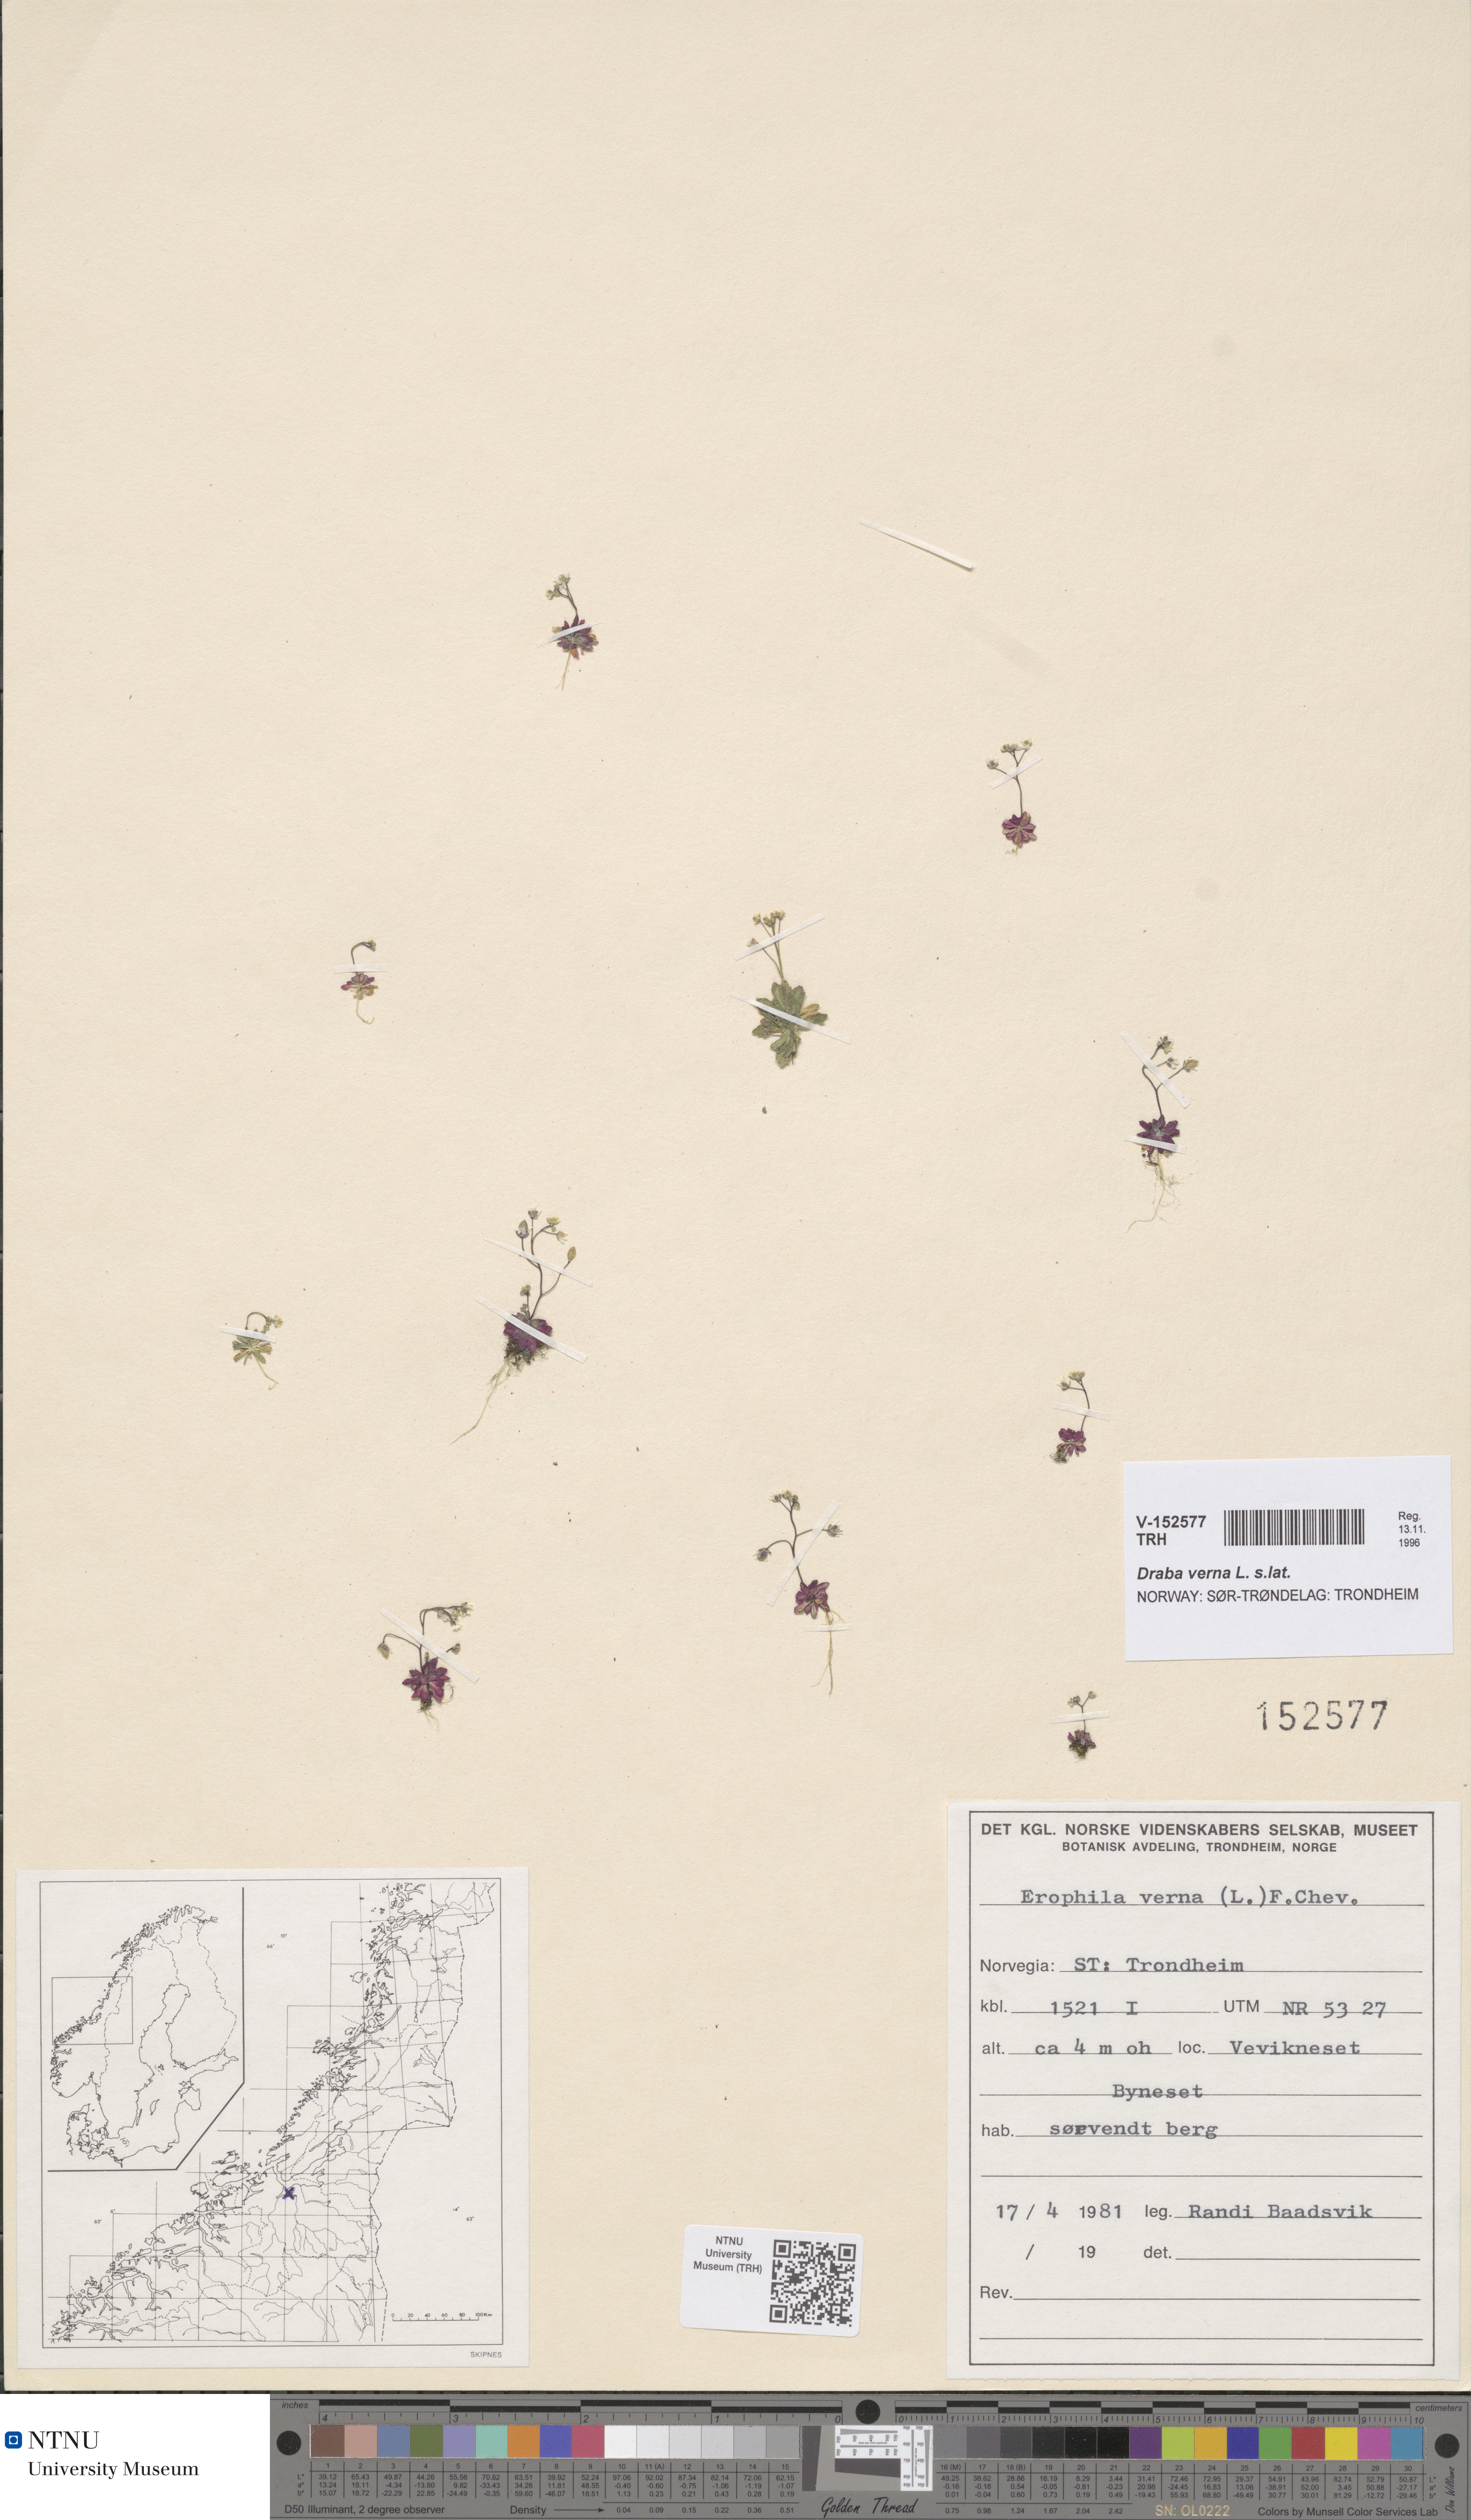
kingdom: Plantae
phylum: Tracheophyta
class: Magnoliopsida
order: Brassicales
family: Brassicaceae
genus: Draba
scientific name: Draba verna
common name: Spring draba
